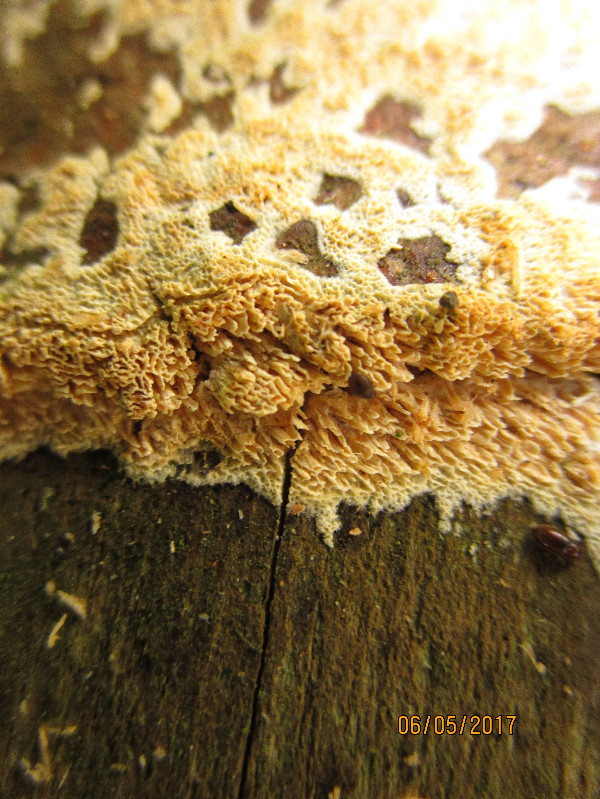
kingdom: Fungi
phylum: Basidiomycota
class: Agaricomycetes
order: Hymenochaetales
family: Schizoporaceae
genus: Xylodon
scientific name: Xylodon
